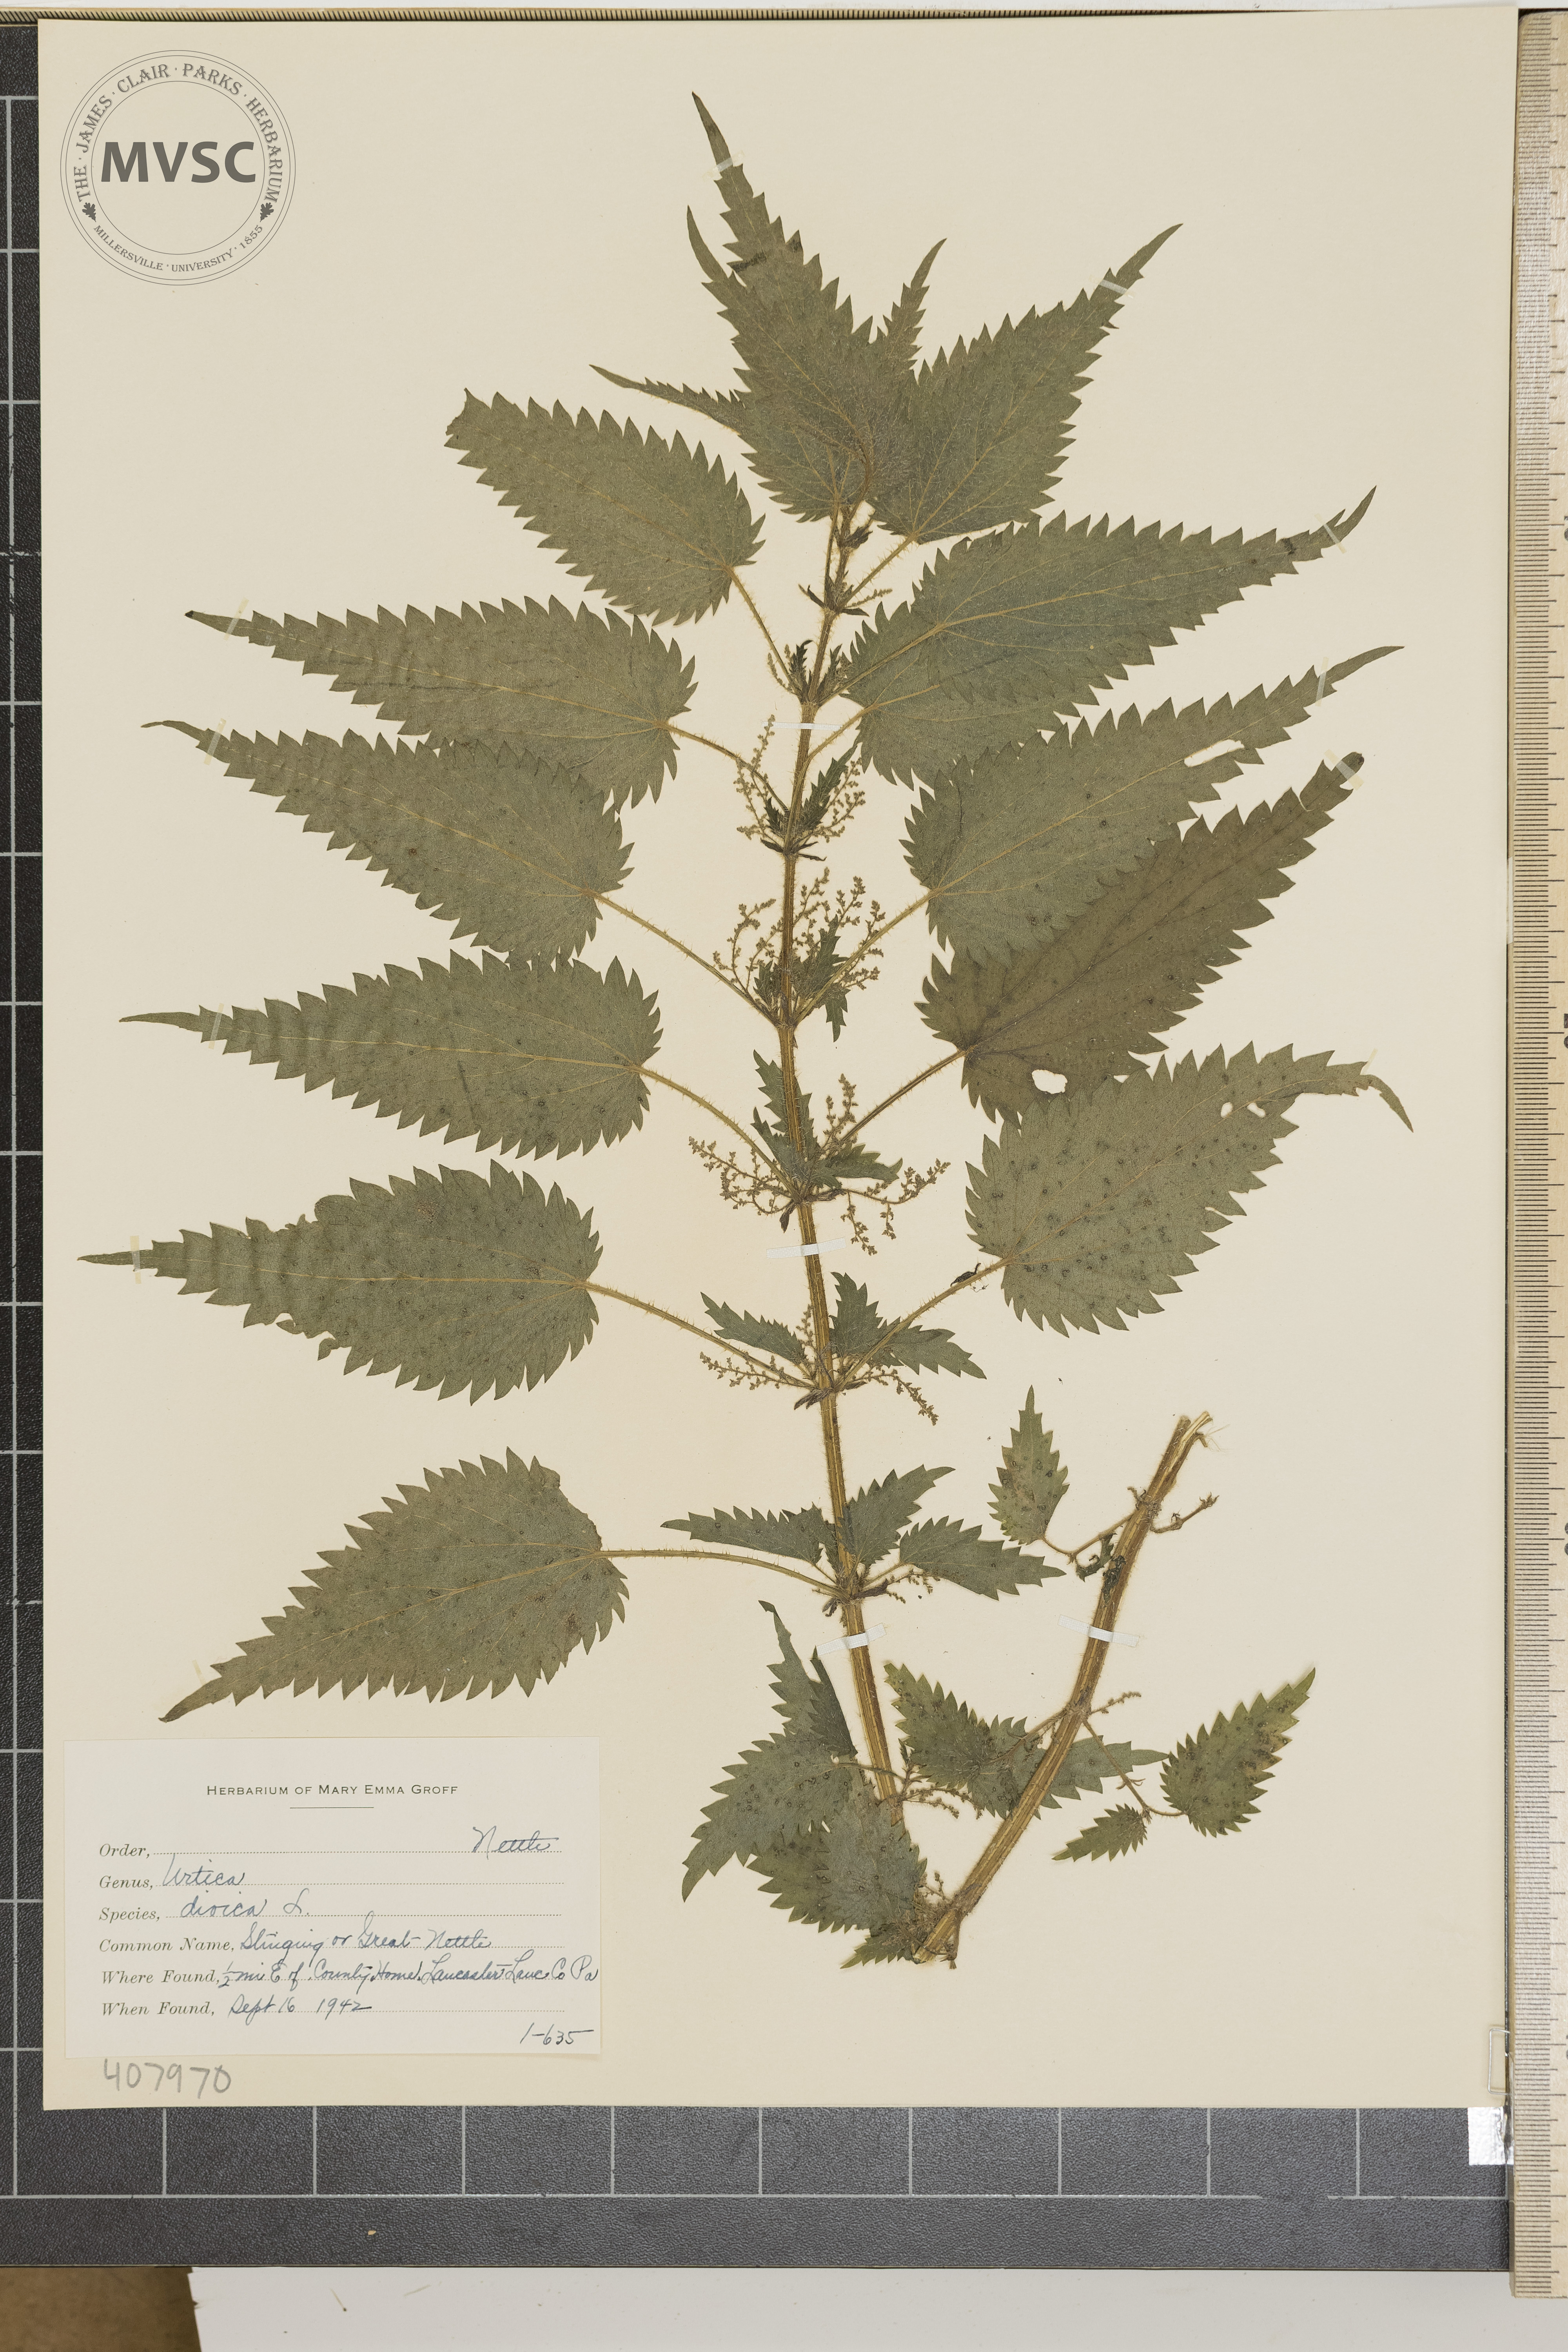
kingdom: Plantae
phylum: Tracheophyta
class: Magnoliopsida
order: Rosales
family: Urticaceae
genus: Urtica
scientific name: Urtica dioica
